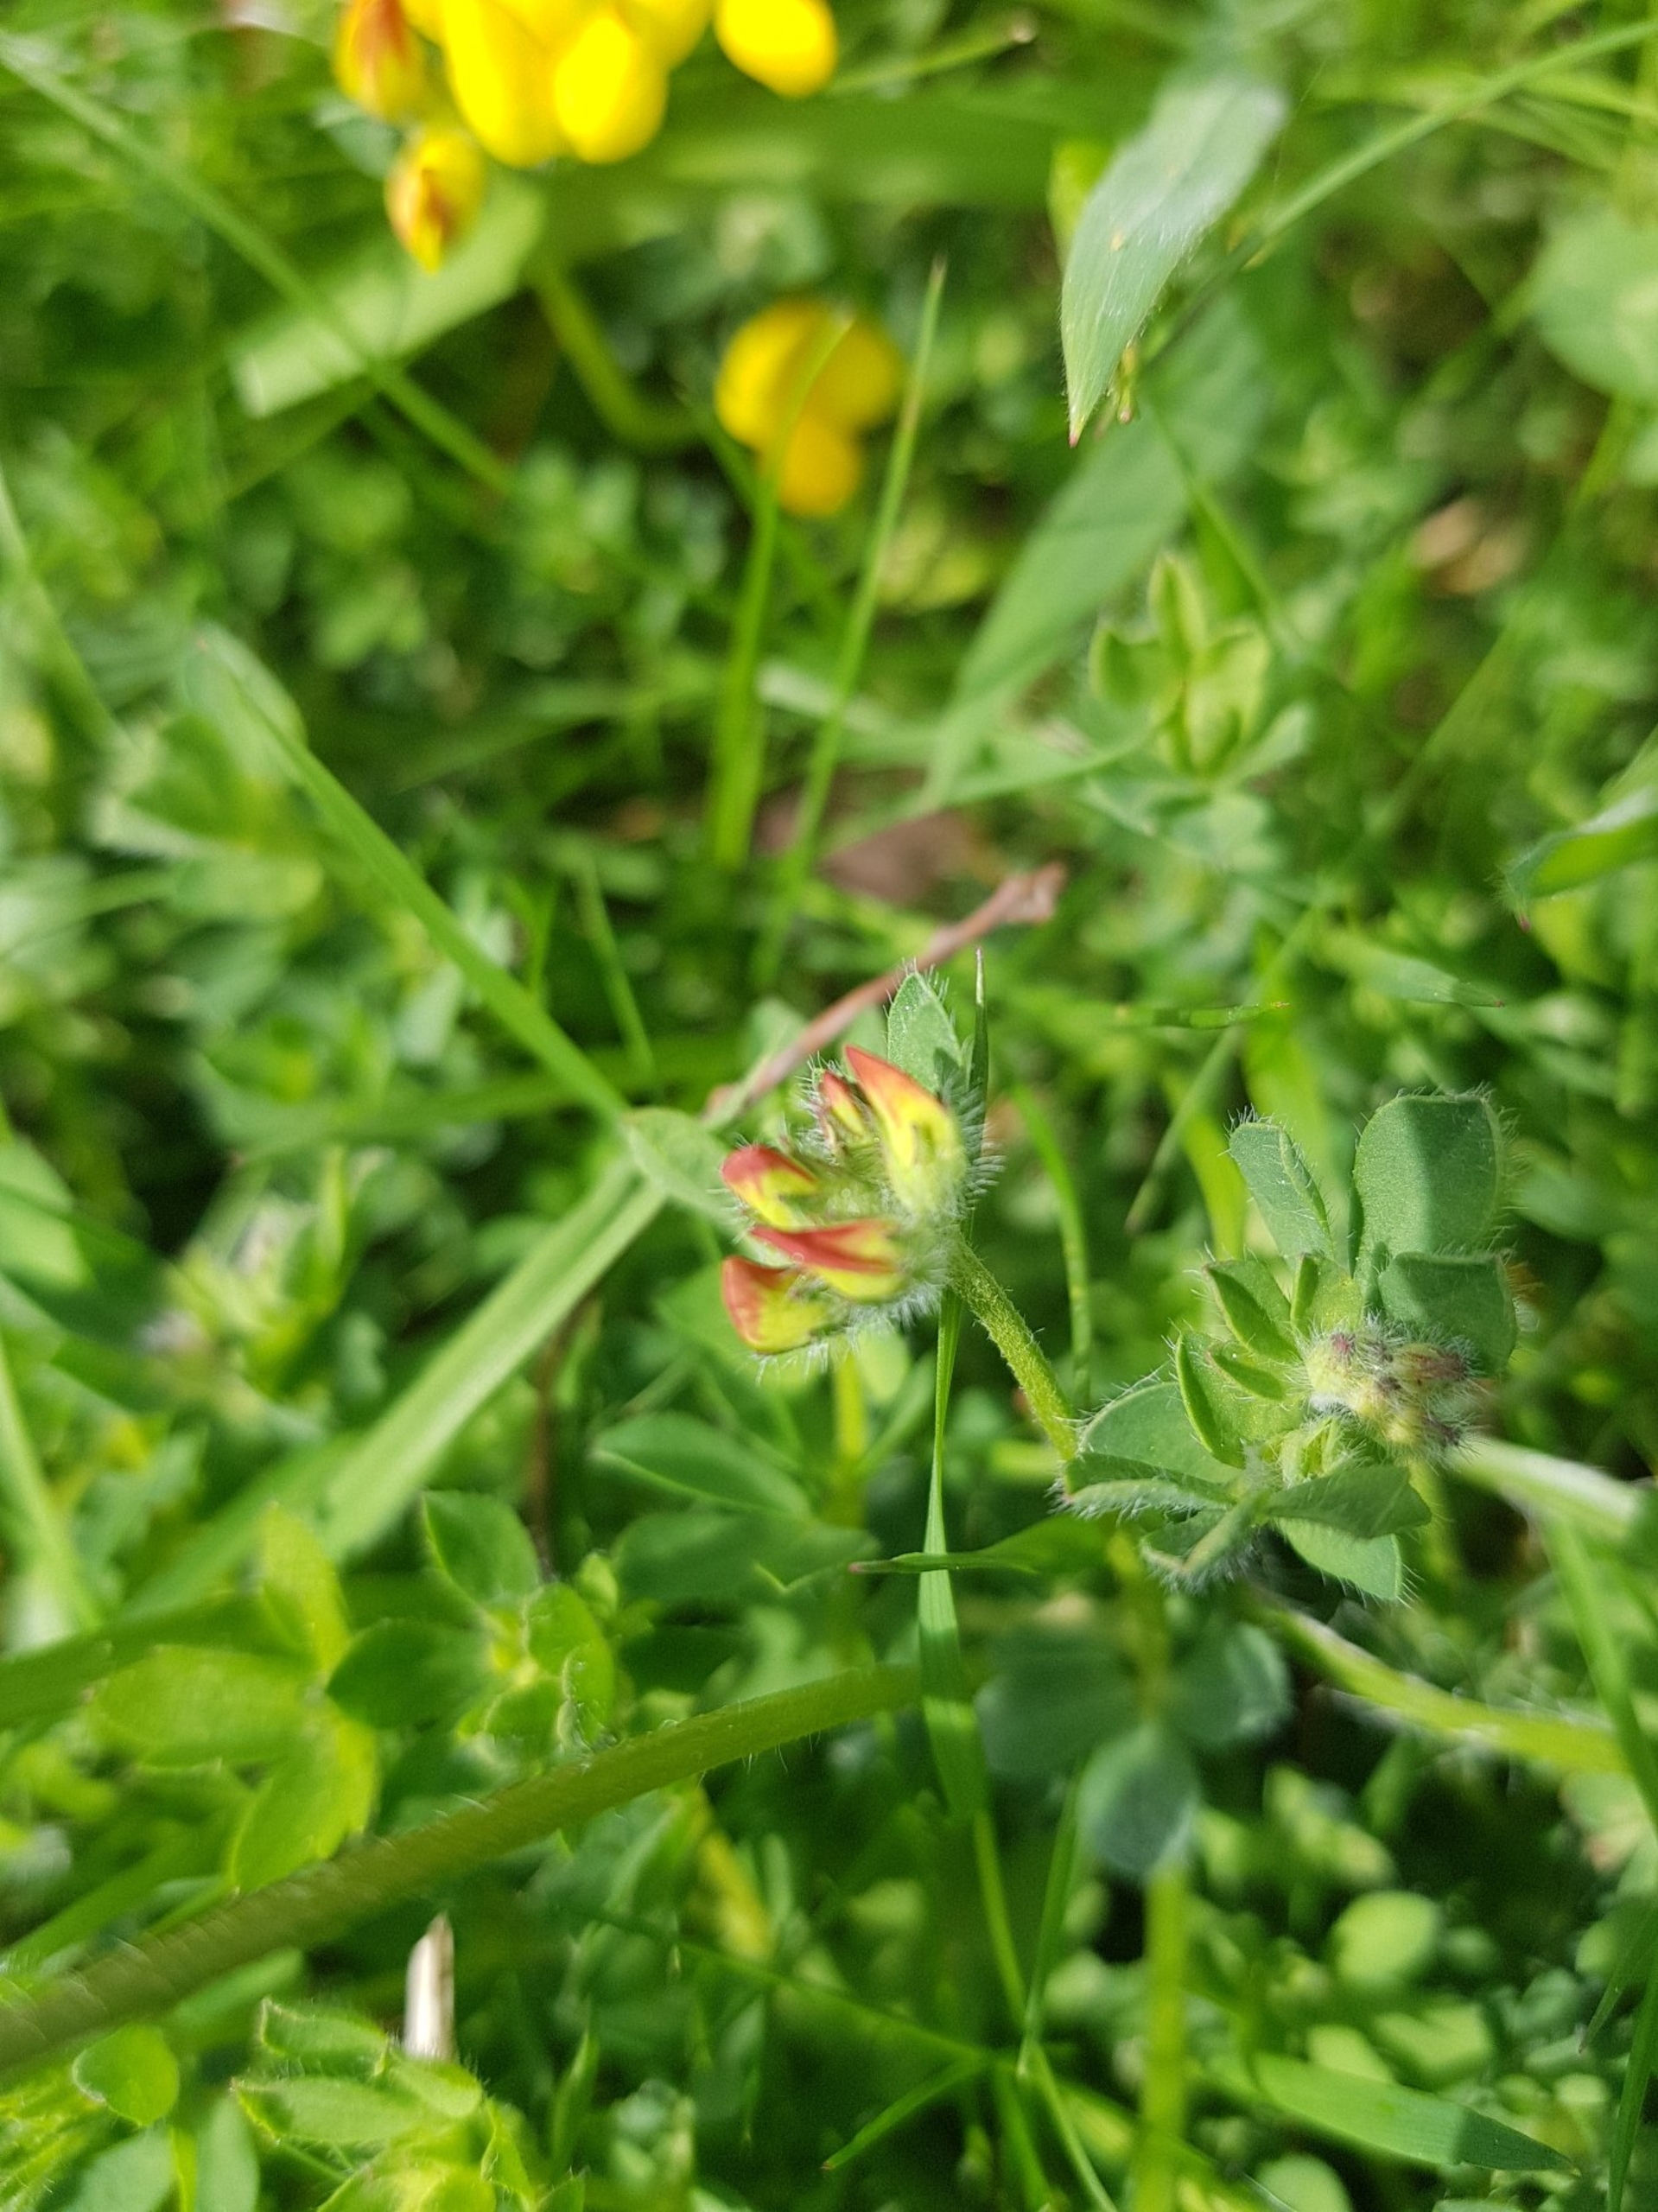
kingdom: Plantae
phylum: Tracheophyta
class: Magnoliopsida
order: Fabales
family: Fabaceae
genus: Lotus
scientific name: Lotus corniculatus
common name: Almindelig kællingetand
